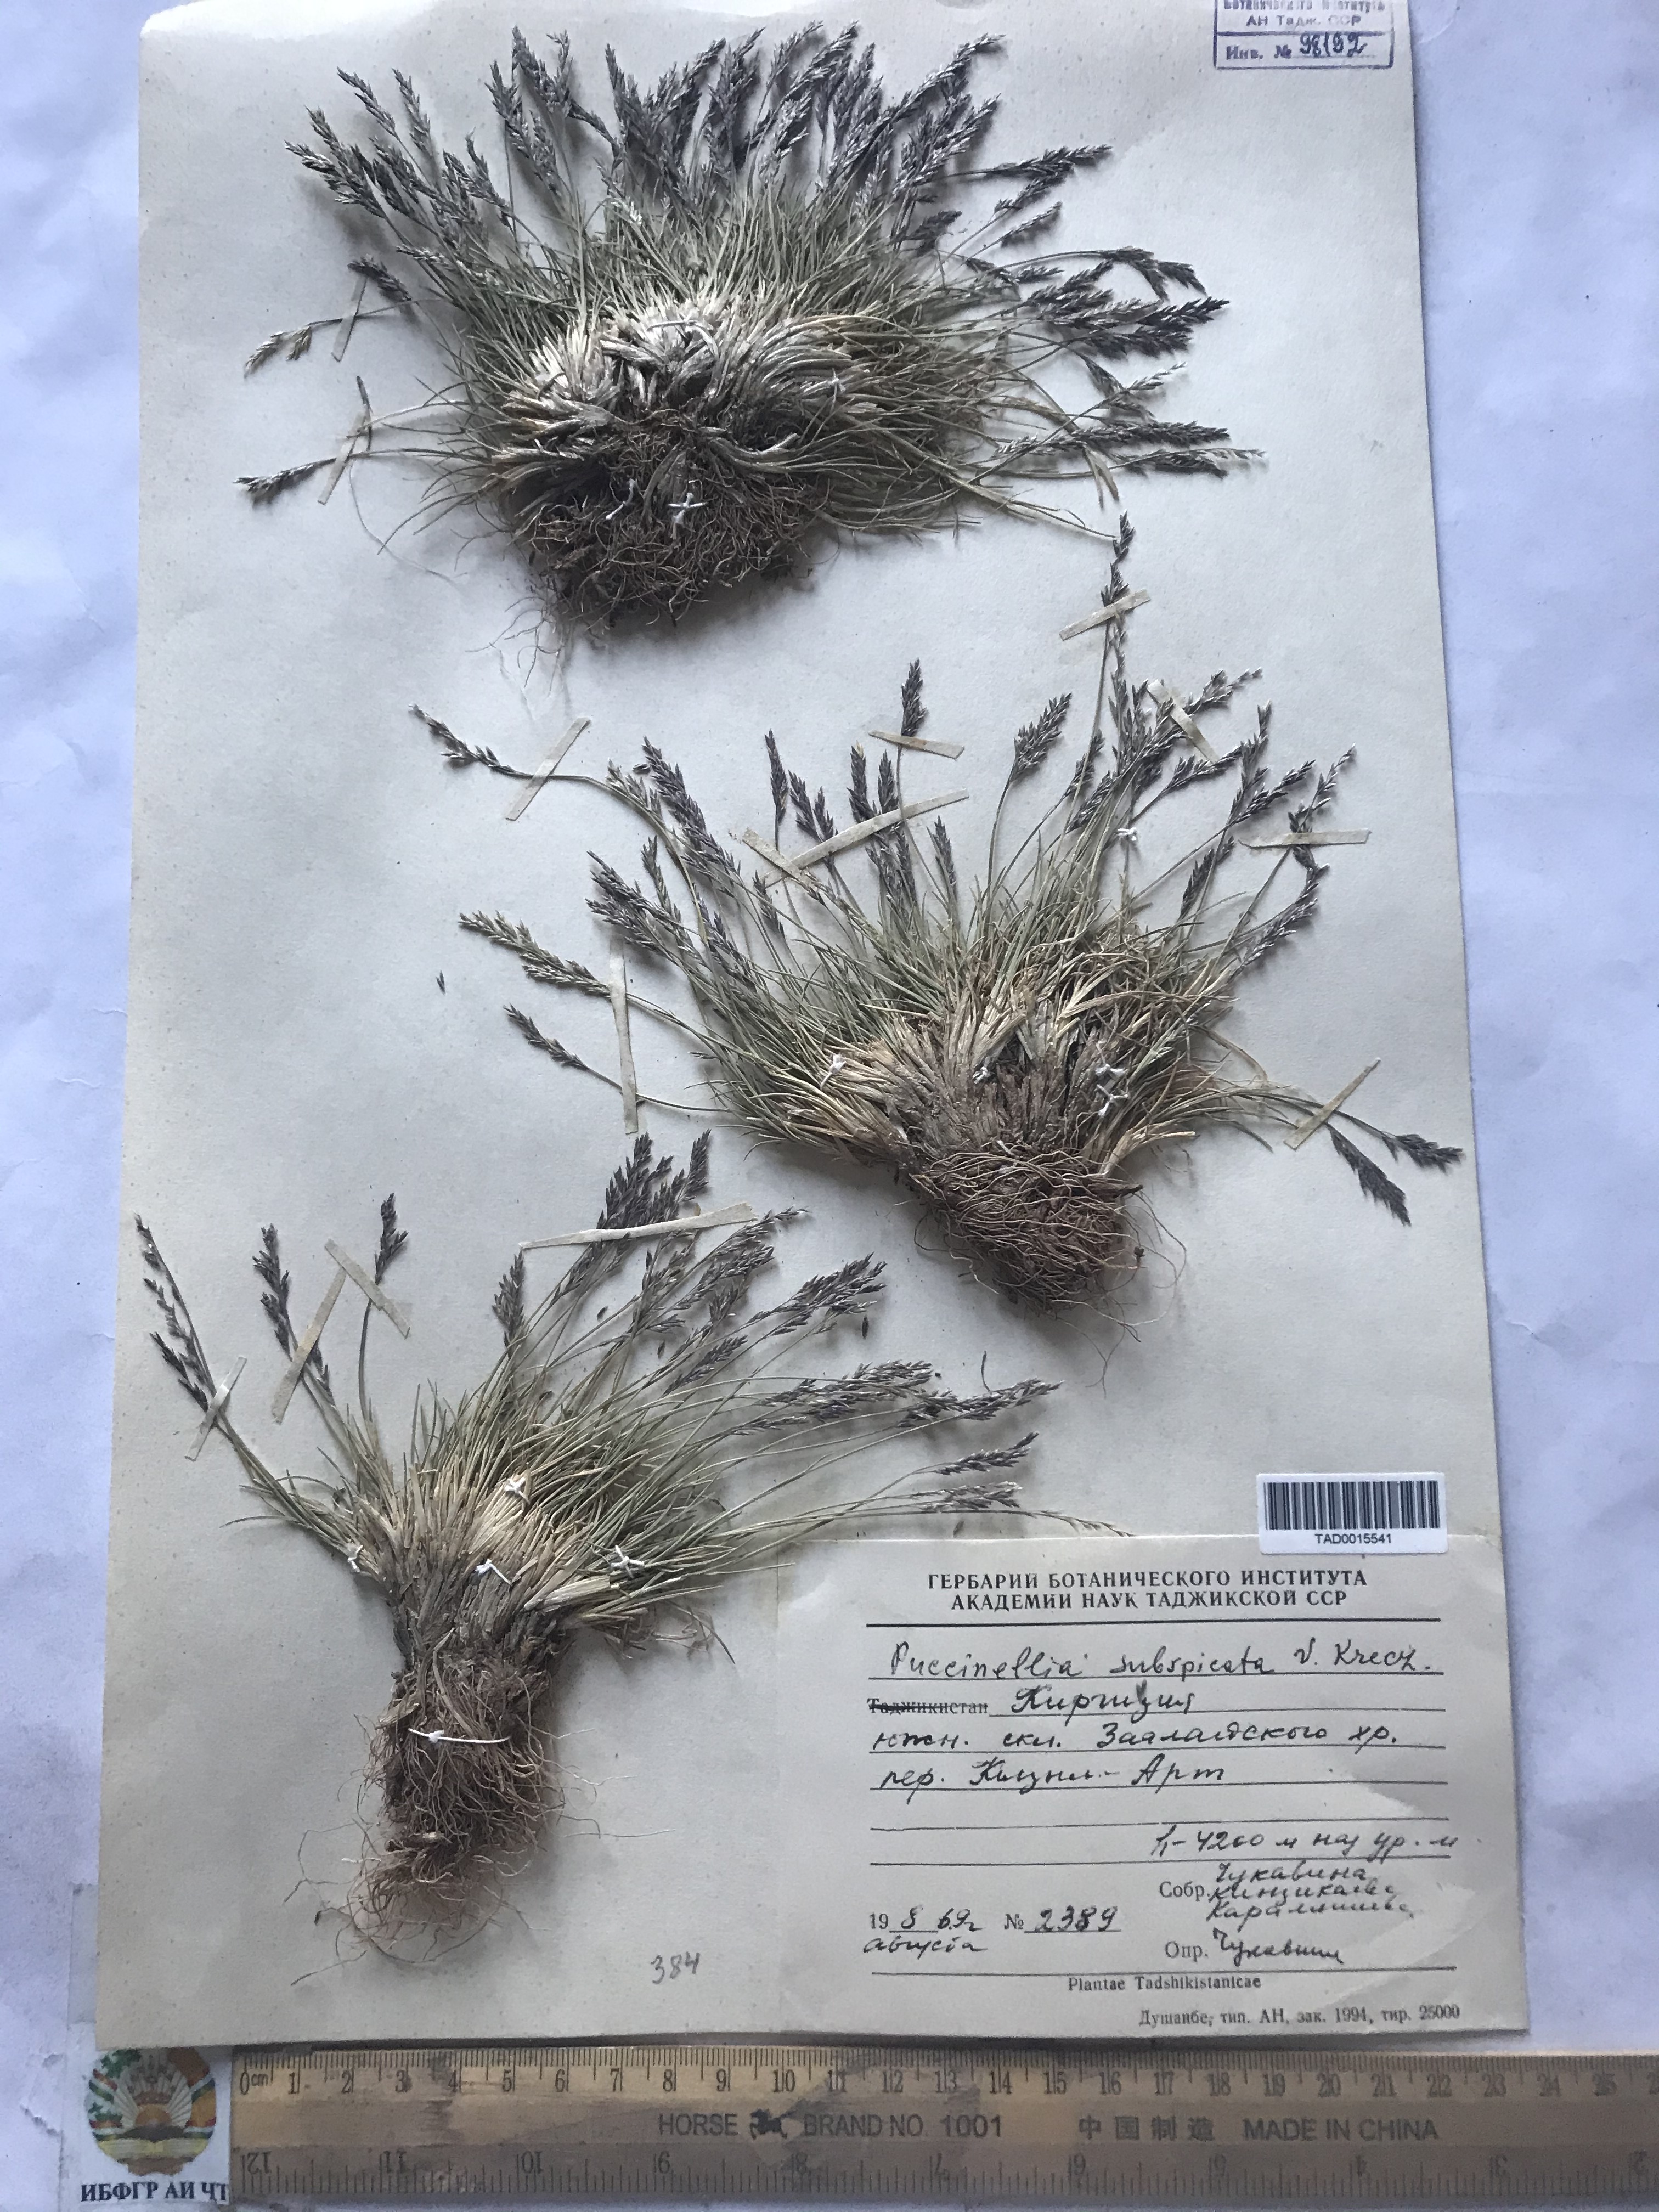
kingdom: Plantae
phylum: Tracheophyta
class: Liliopsida
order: Poales
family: Poaceae
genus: Puccinellia
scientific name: Puccinellia subspicata
